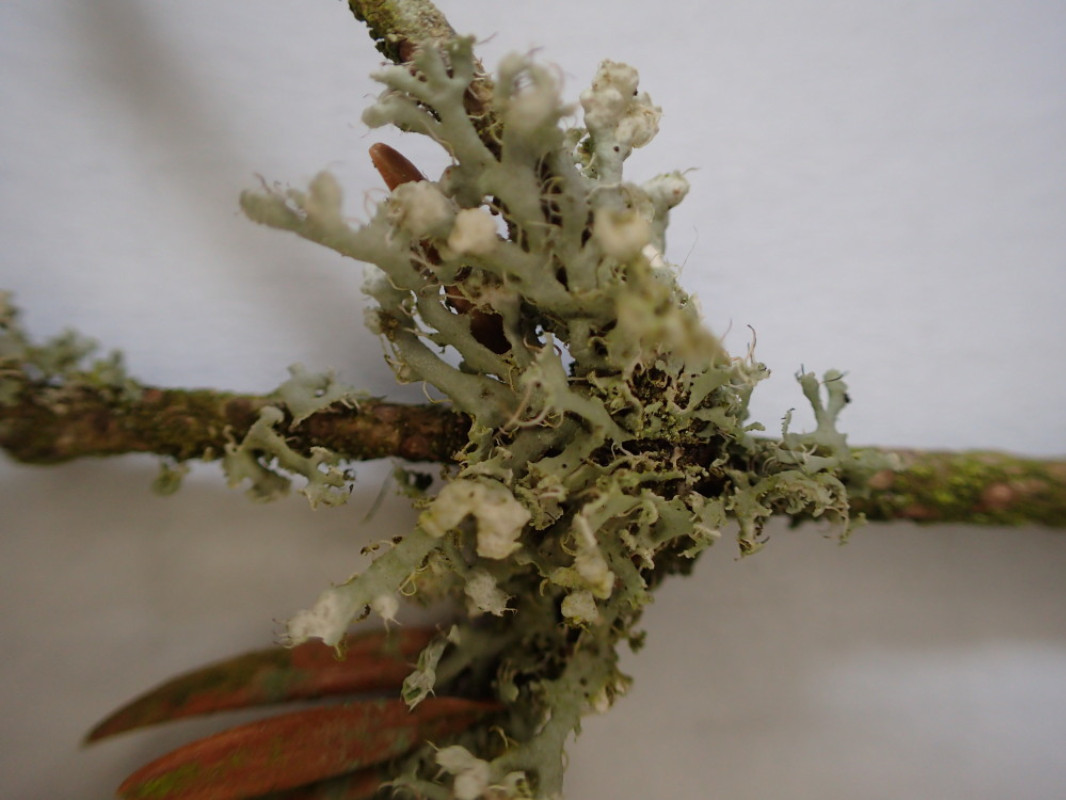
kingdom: Fungi
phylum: Ascomycota
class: Lecanoromycetes
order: Caliciales
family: Physciaceae
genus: Physcia
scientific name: Physcia adscendens
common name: hætte-rosetlav
